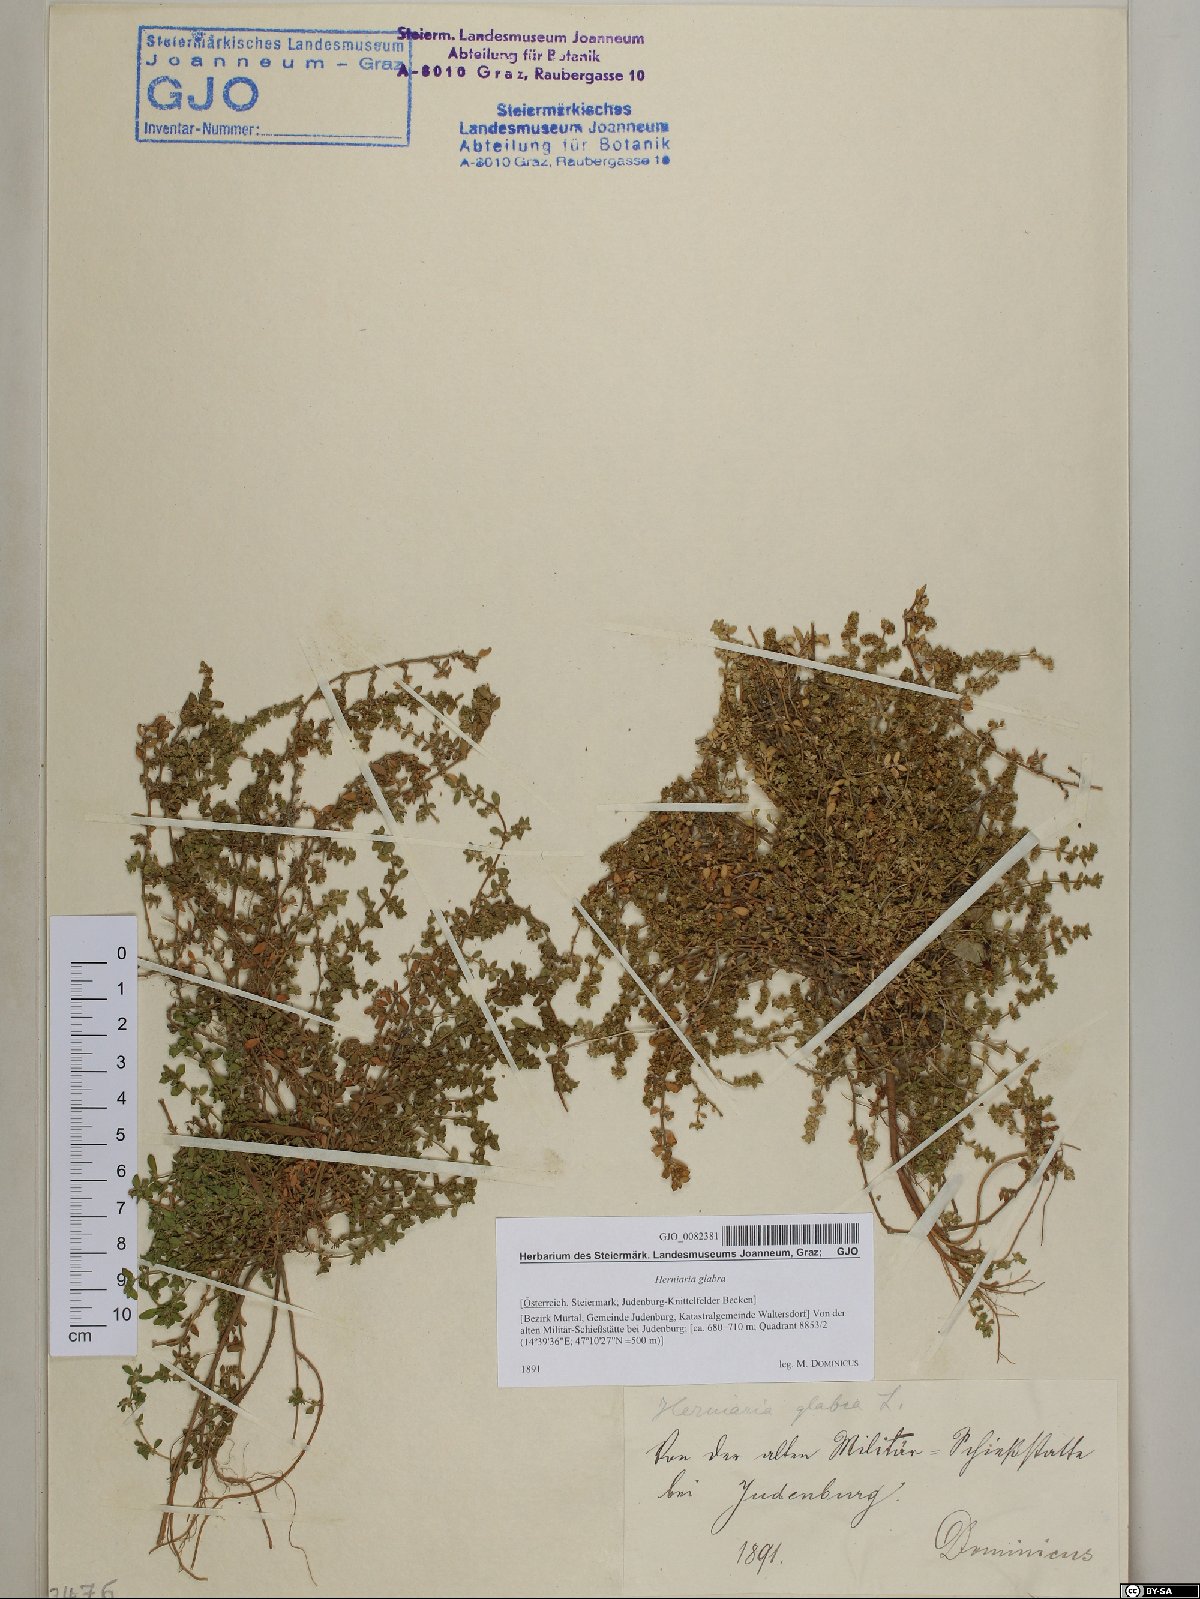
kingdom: Plantae
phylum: Tracheophyta
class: Magnoliopsida
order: Caryophyllales
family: Caryophyllaceae
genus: Herniaria
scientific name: Herniaria glabra
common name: Smooth rupturewort
